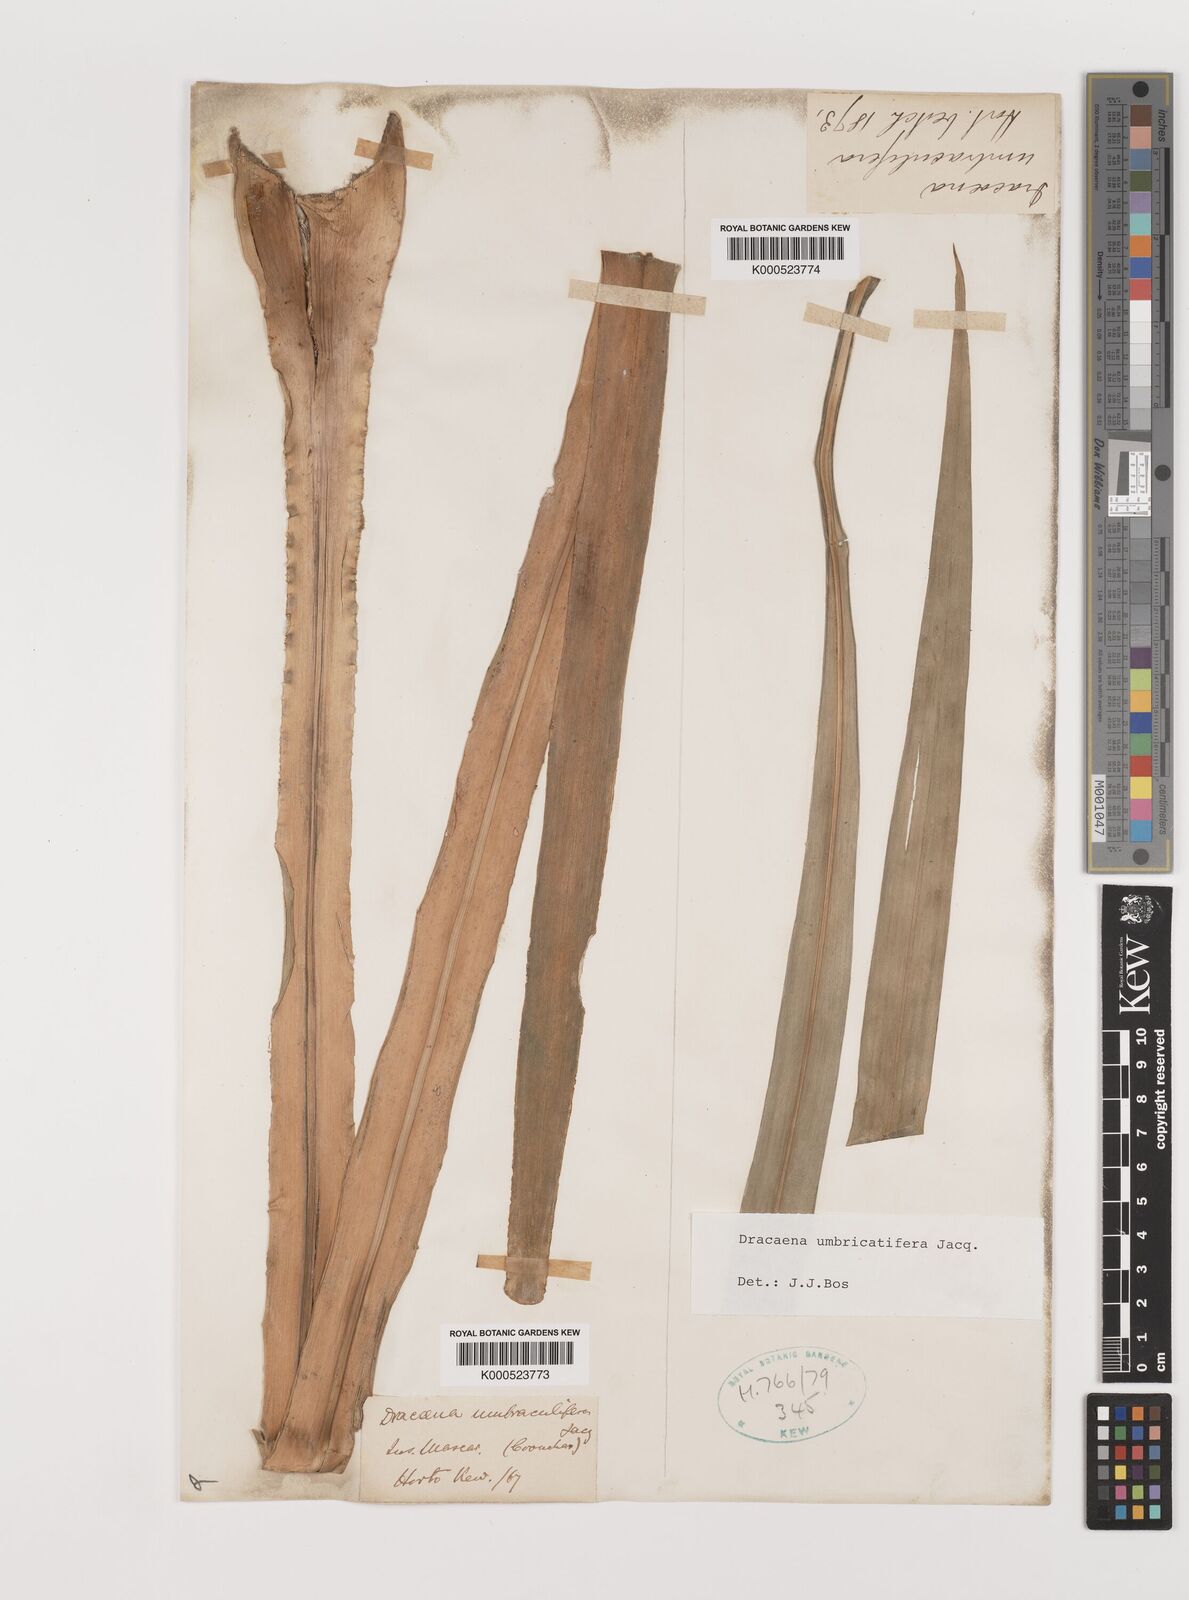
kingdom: Plantae
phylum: Tracheophyta
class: Liliopsida
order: Asparagales
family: Asparagaceae
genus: Dracaena
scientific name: Dracaena
